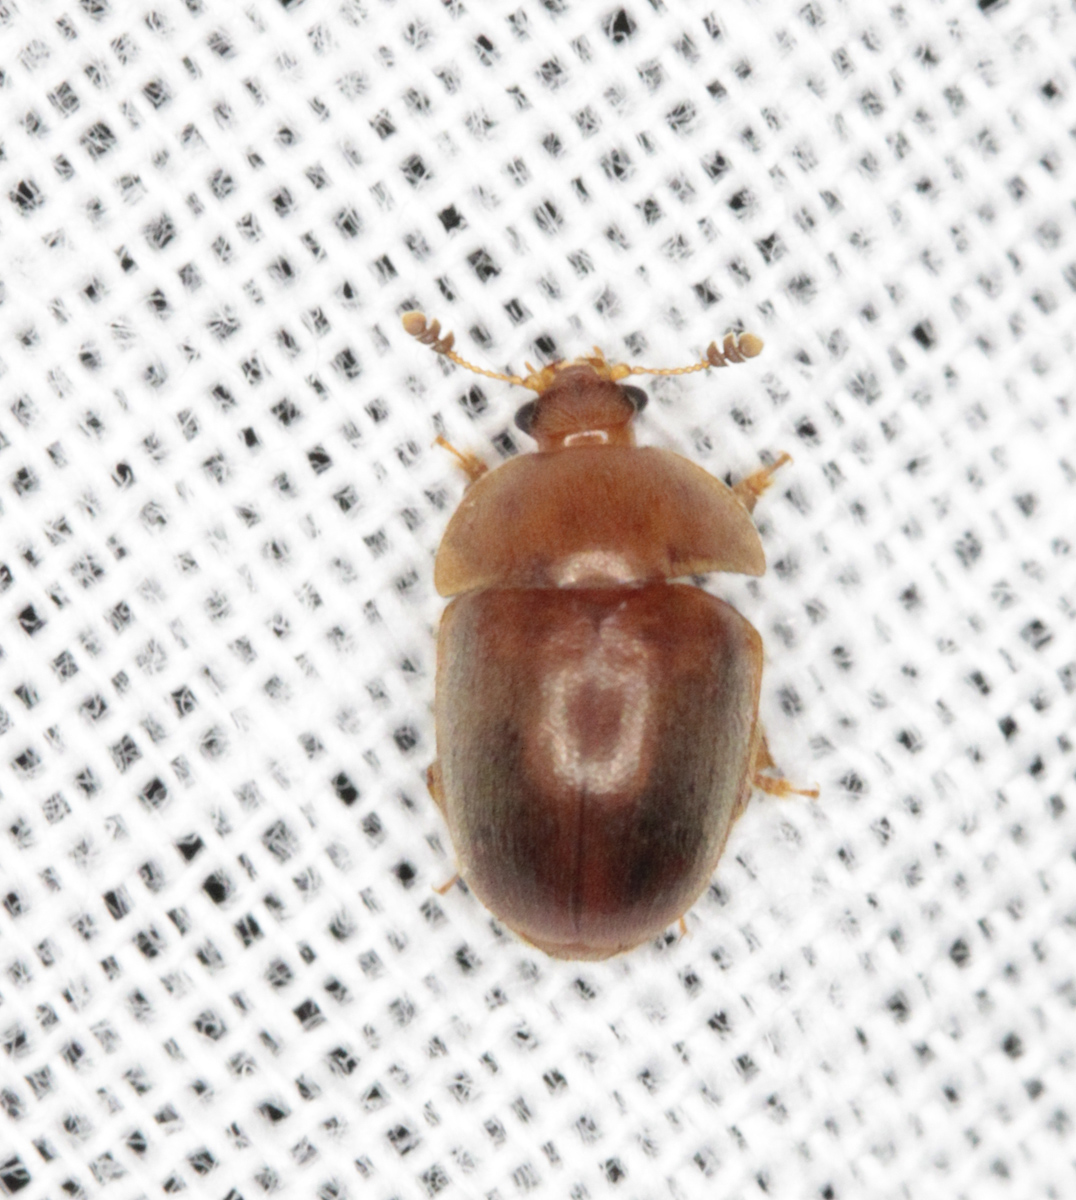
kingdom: Animalia
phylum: Arthropoda
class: Insecta
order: Coleoptera
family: Nitidulidae
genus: Cychramus
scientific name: Cychramus luteus
